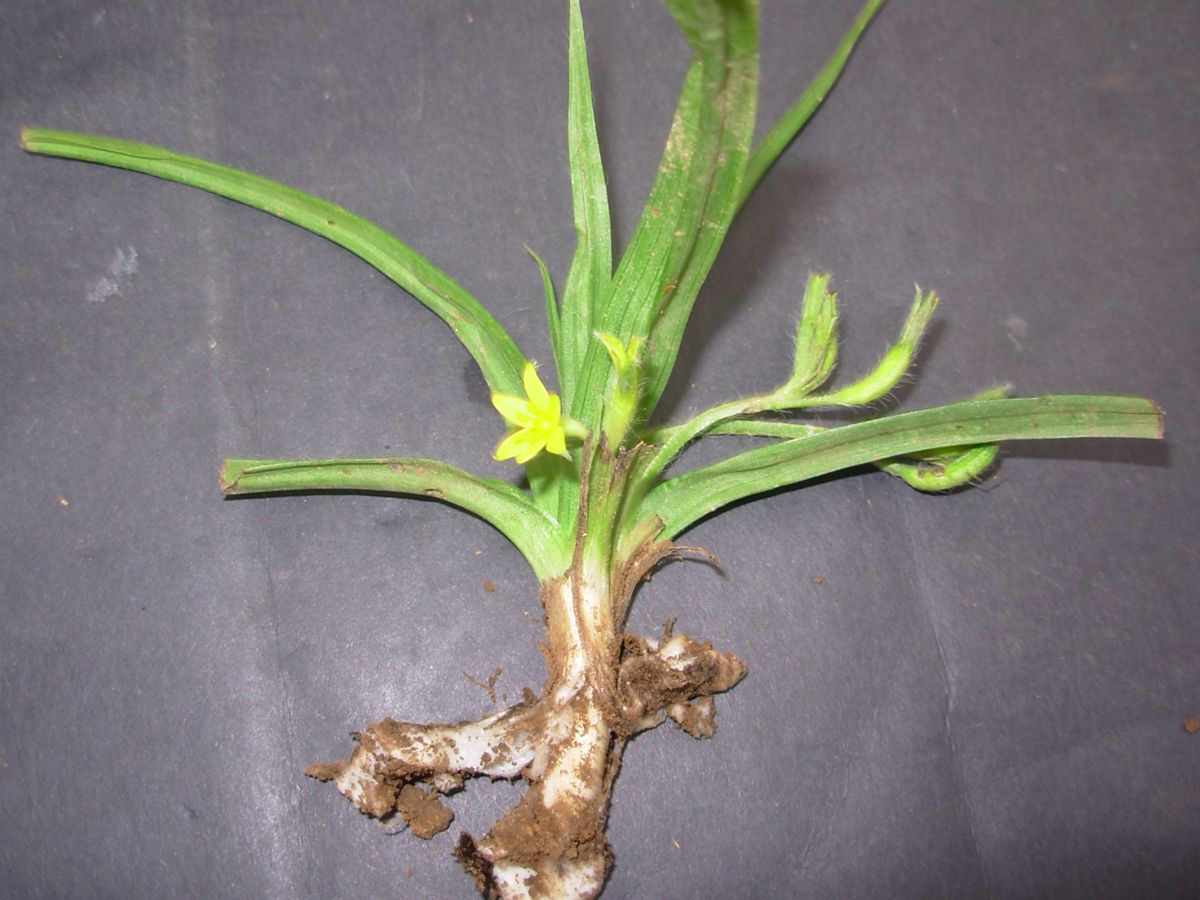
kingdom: Plantae
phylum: Tracheophyta
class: Liliopsida
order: Asparagales
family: Hypoxidaceae
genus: Hypoxis
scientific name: Hypoxis decumbens
